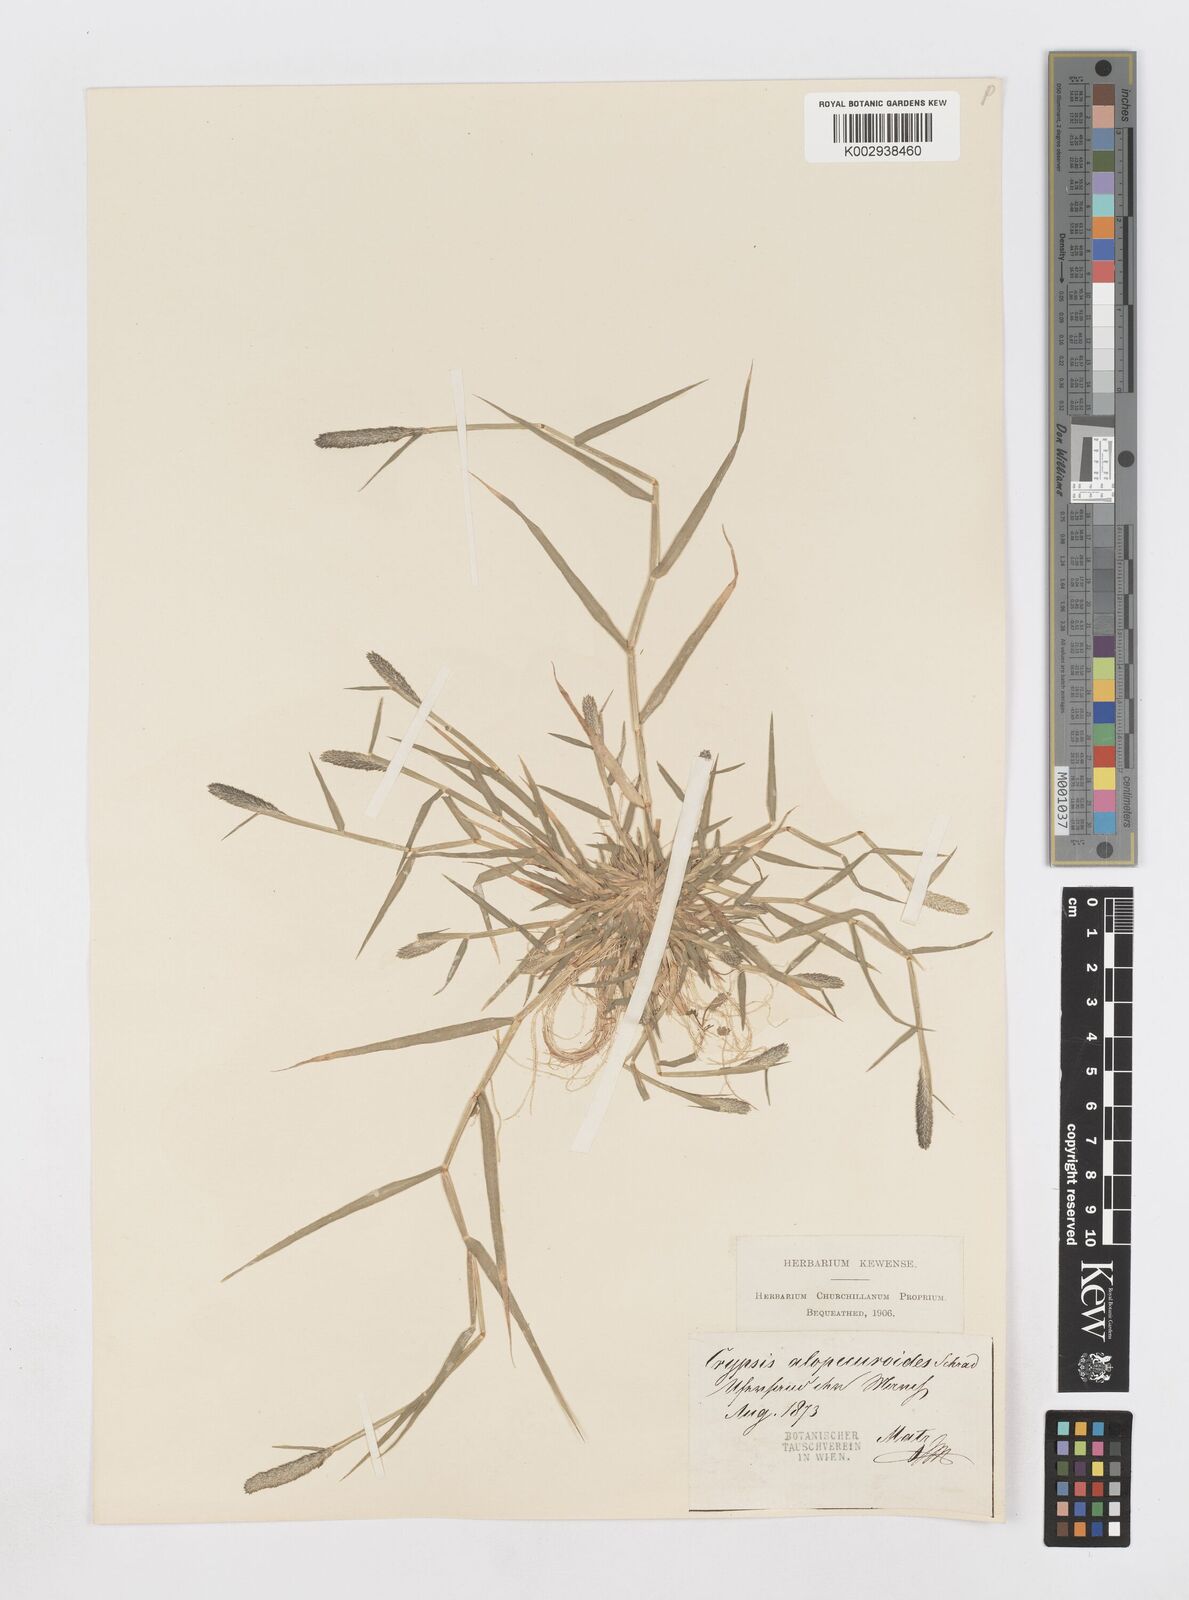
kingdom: Plantae
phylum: Tracheophyta
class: Liliopsida
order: Poales
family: Poaceae
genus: Sporobolus
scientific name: Sporobolus alopecuroides
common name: Foxtail pricklegrass
